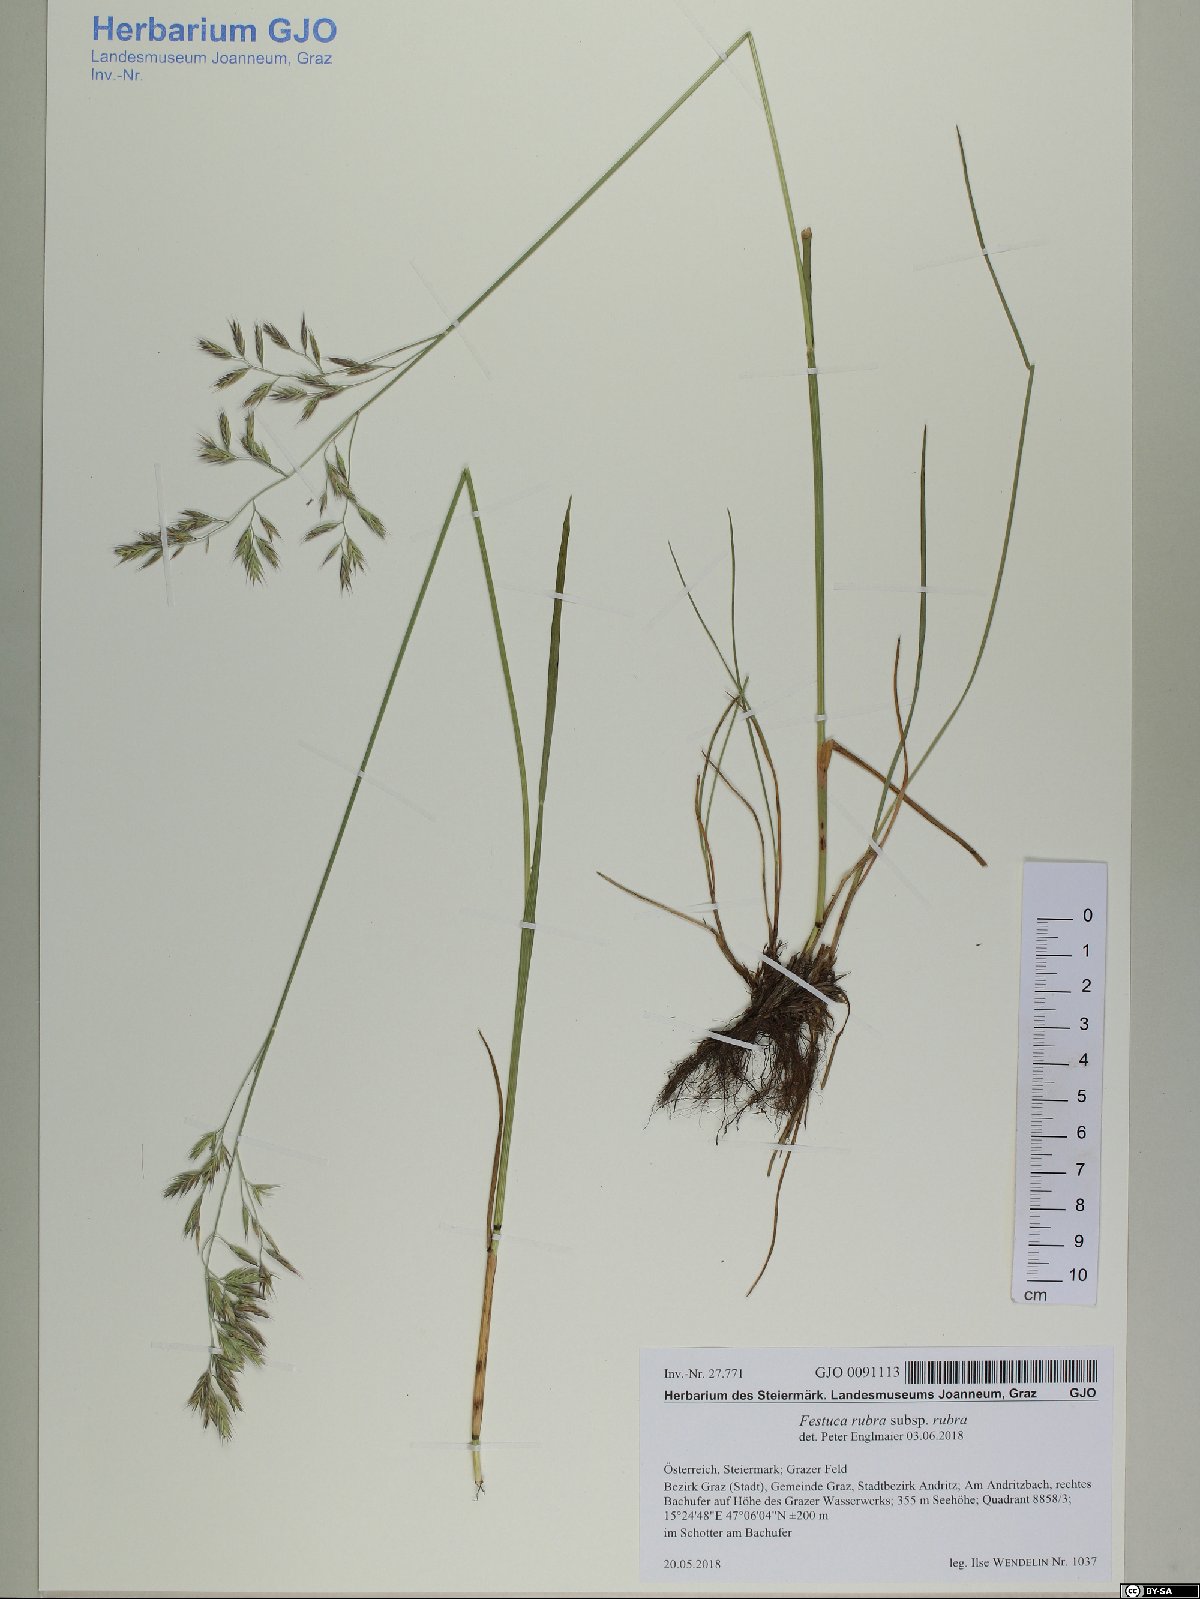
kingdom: Plantae
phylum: Tracheophyta
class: Liliopsida
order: Poales
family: Poaceae
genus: Festuca
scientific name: Festuca rubra
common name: Red fescue
